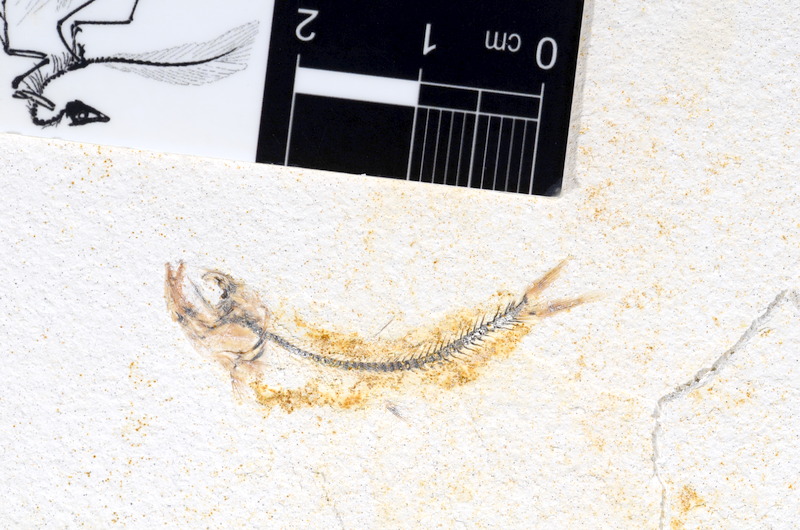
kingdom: Animalia
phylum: Chordata
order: Salmoniformes
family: Orthogonikleithridae
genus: Orthogonikleithrus
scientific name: Orthogonikleithrus hoelli
